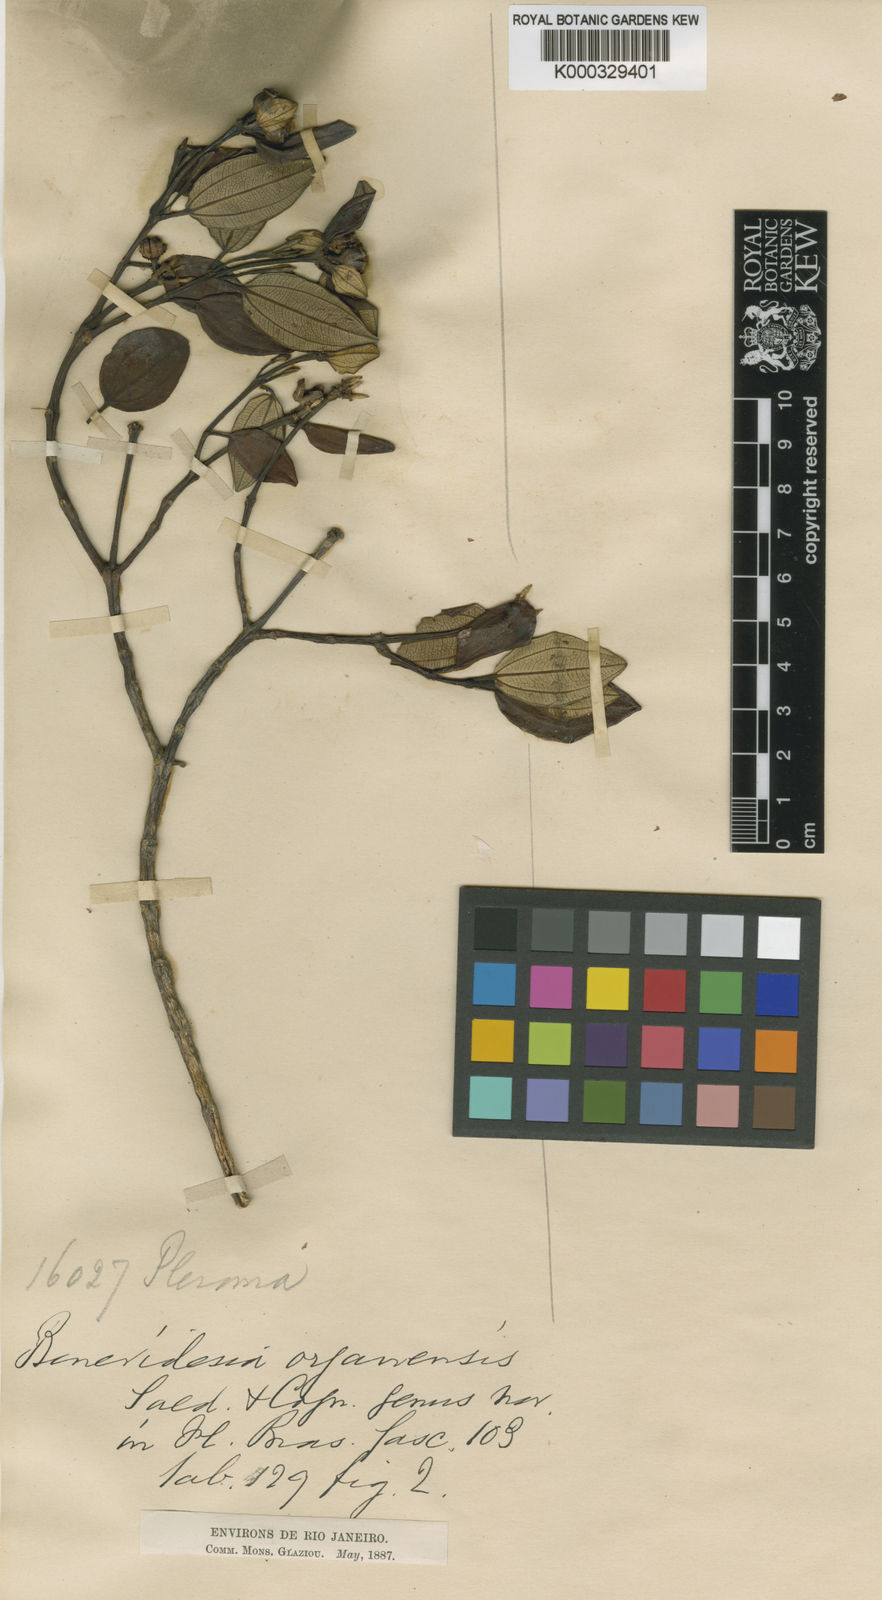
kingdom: Plantae
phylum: Tracheophyta
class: Magnoliopsida
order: Myrtales
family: Melastomataceae
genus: Huberia
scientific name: Huberia organensis
